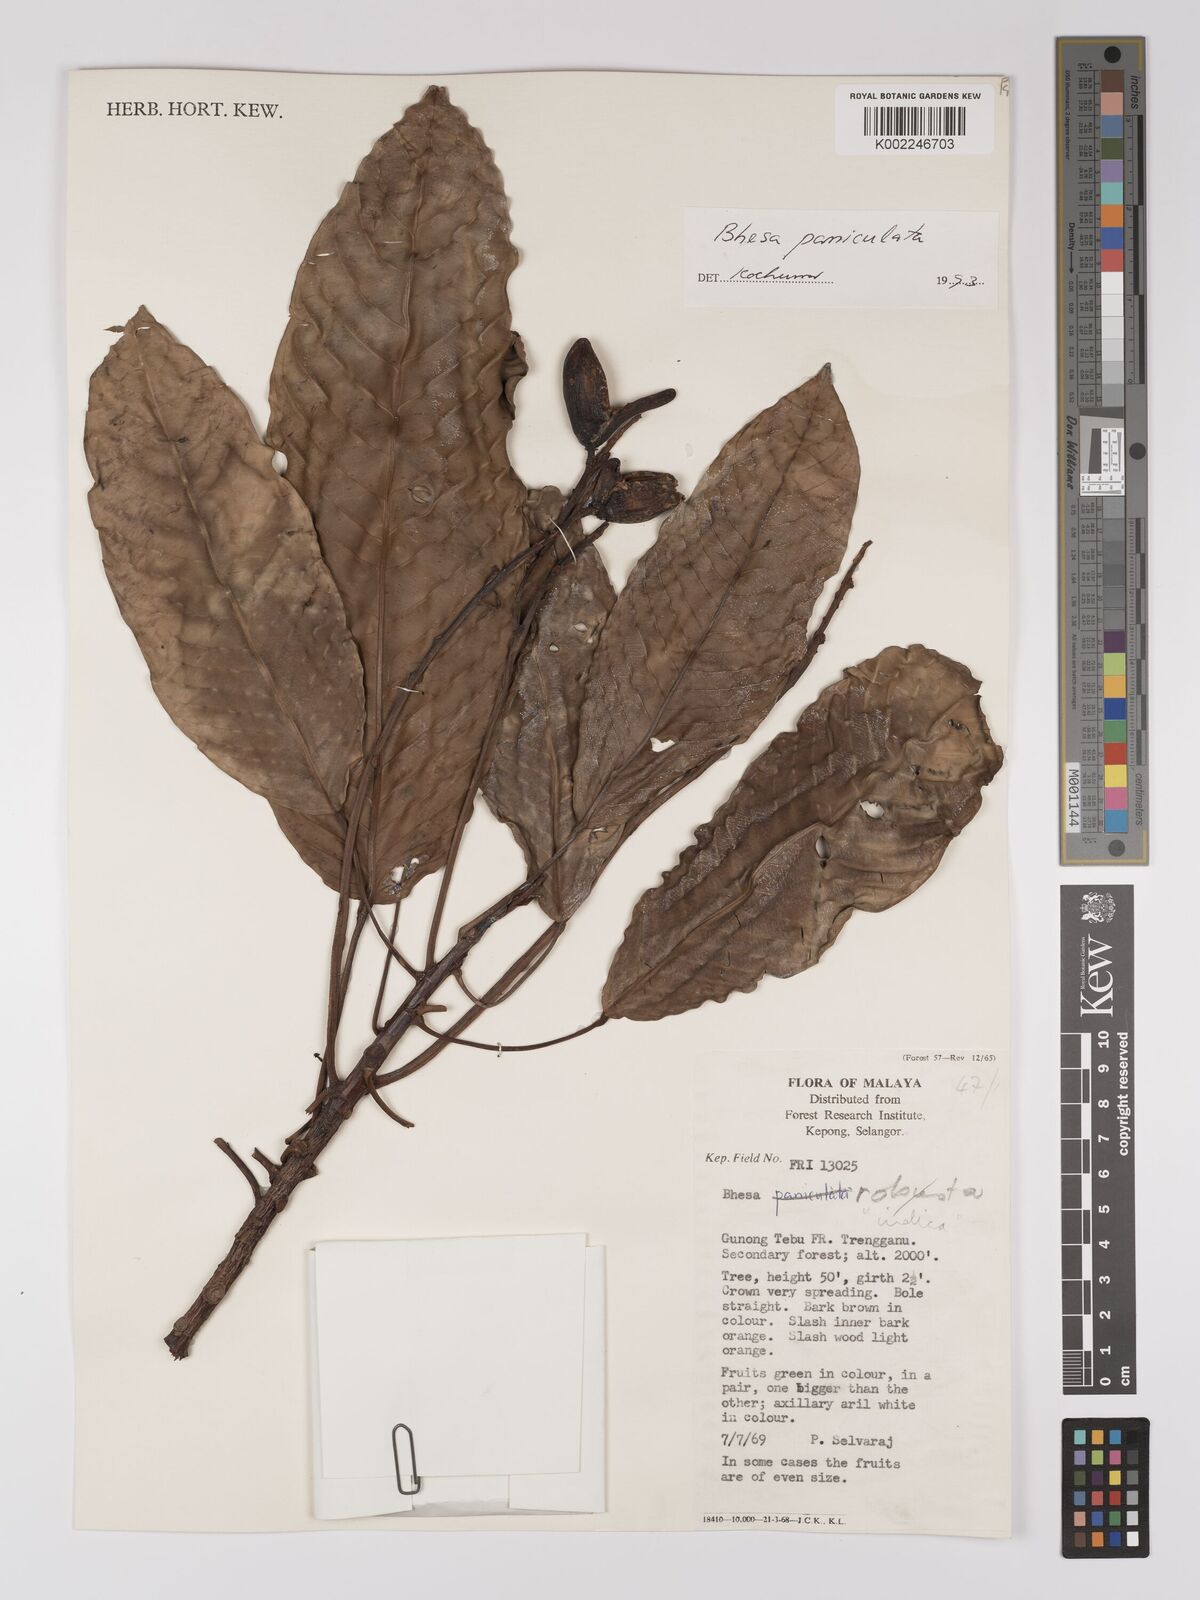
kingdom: Plantae
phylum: Tracheophyta
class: Magnoliopsida
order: Malpighiales
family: Centroplacaceae
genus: Bhesa
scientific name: Bhesa indica
